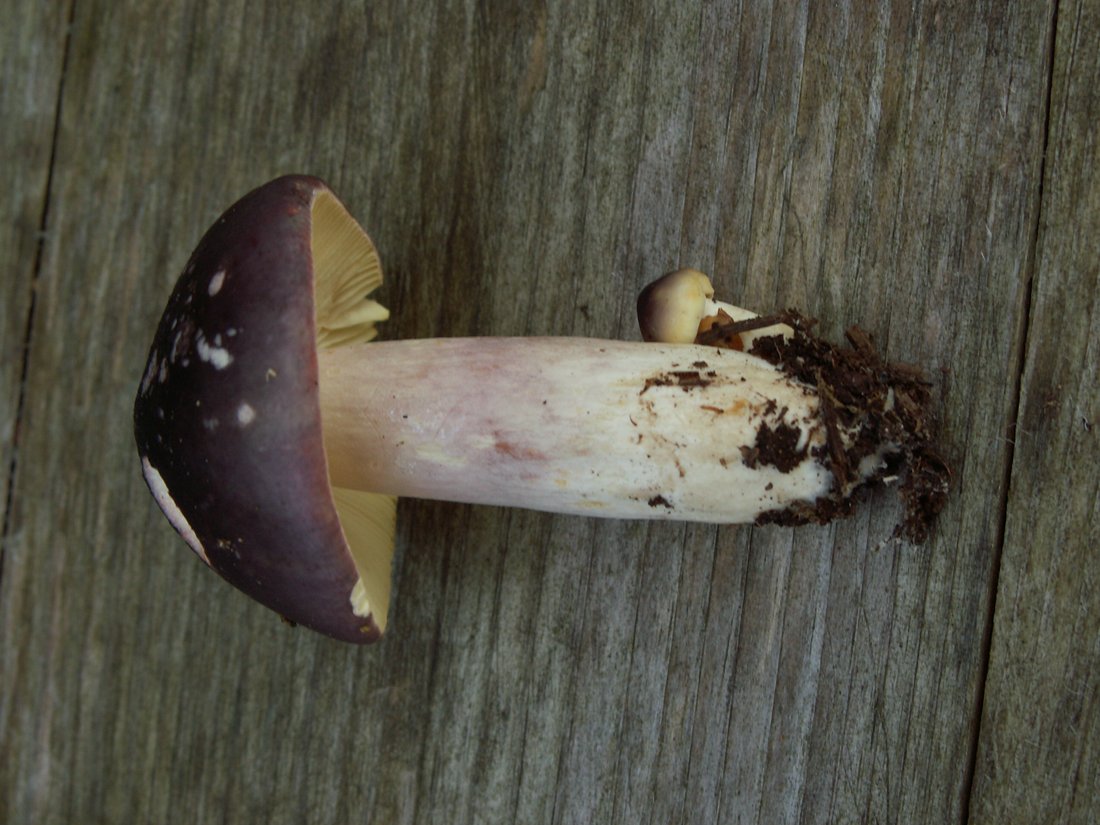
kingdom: Fungi
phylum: Basidiomycota
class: Agaricomycetes
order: Russulales
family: Russulaceae
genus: Russula
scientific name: Russula sardonia
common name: citronbladet skørhat
